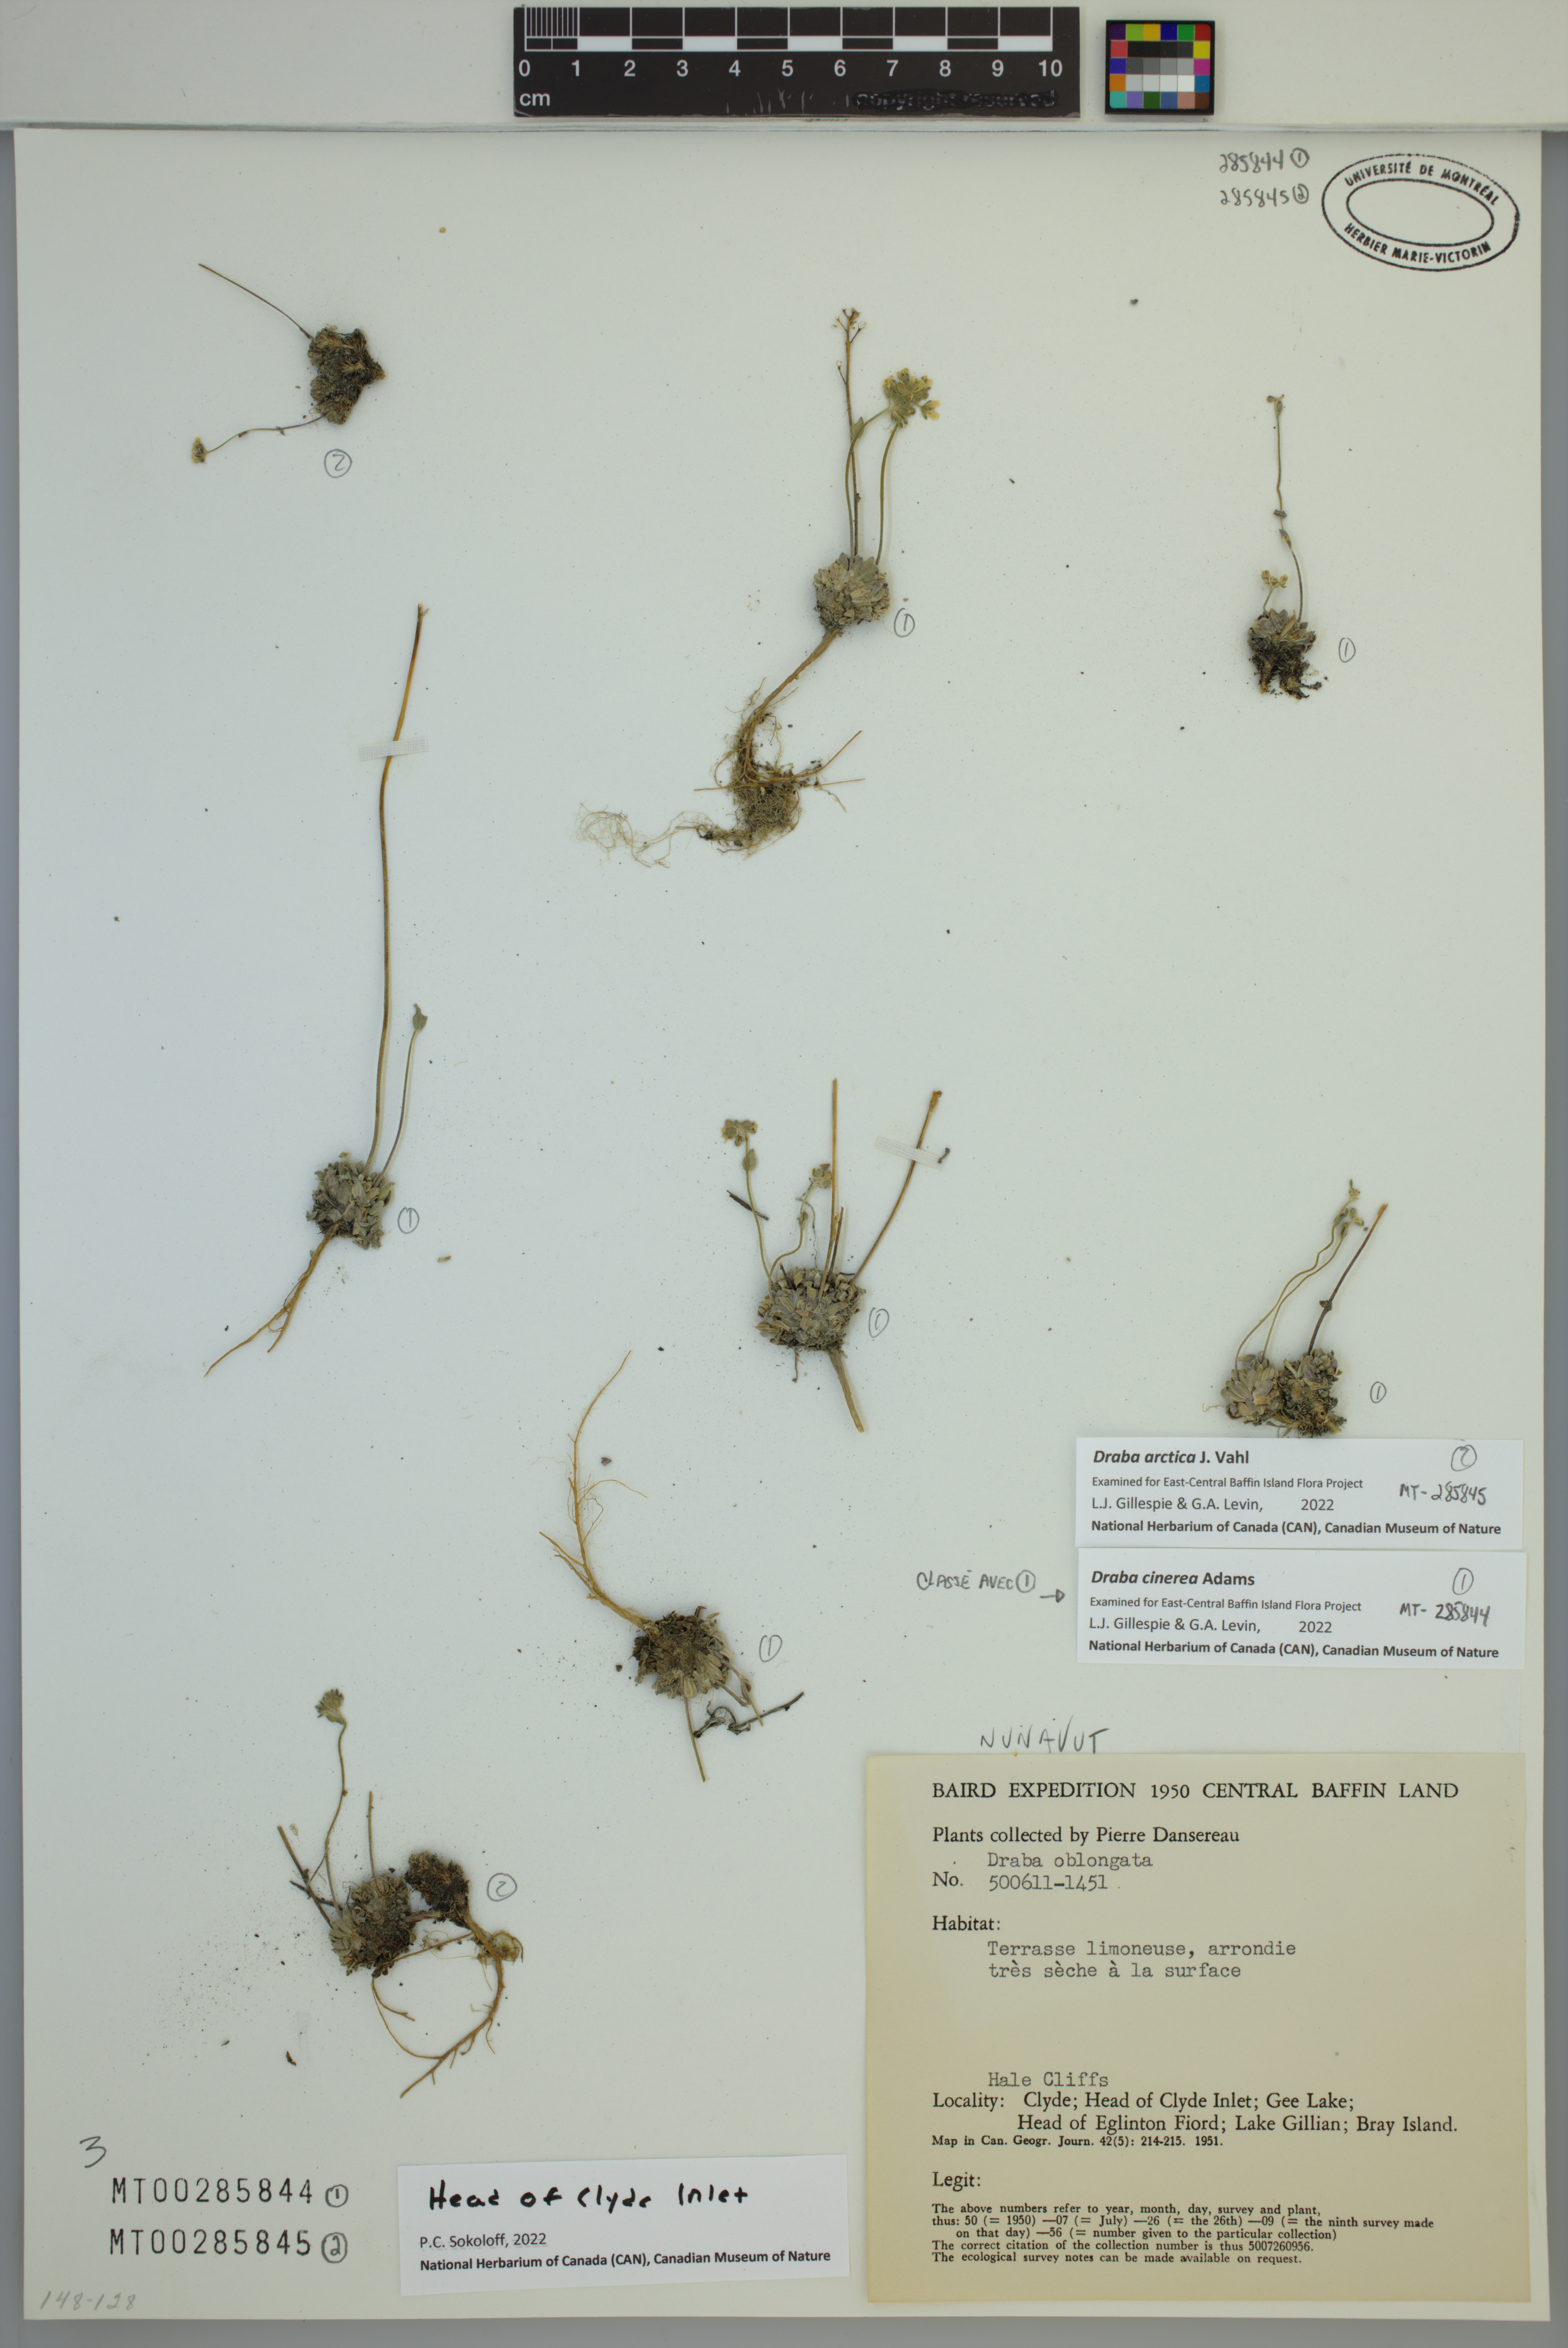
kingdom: Plantae
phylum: Tracheophyta
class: Magnoliopsida
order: Brassicales
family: Brassicaceae
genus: Draba
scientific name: Draba arctica
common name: Arctic draba
